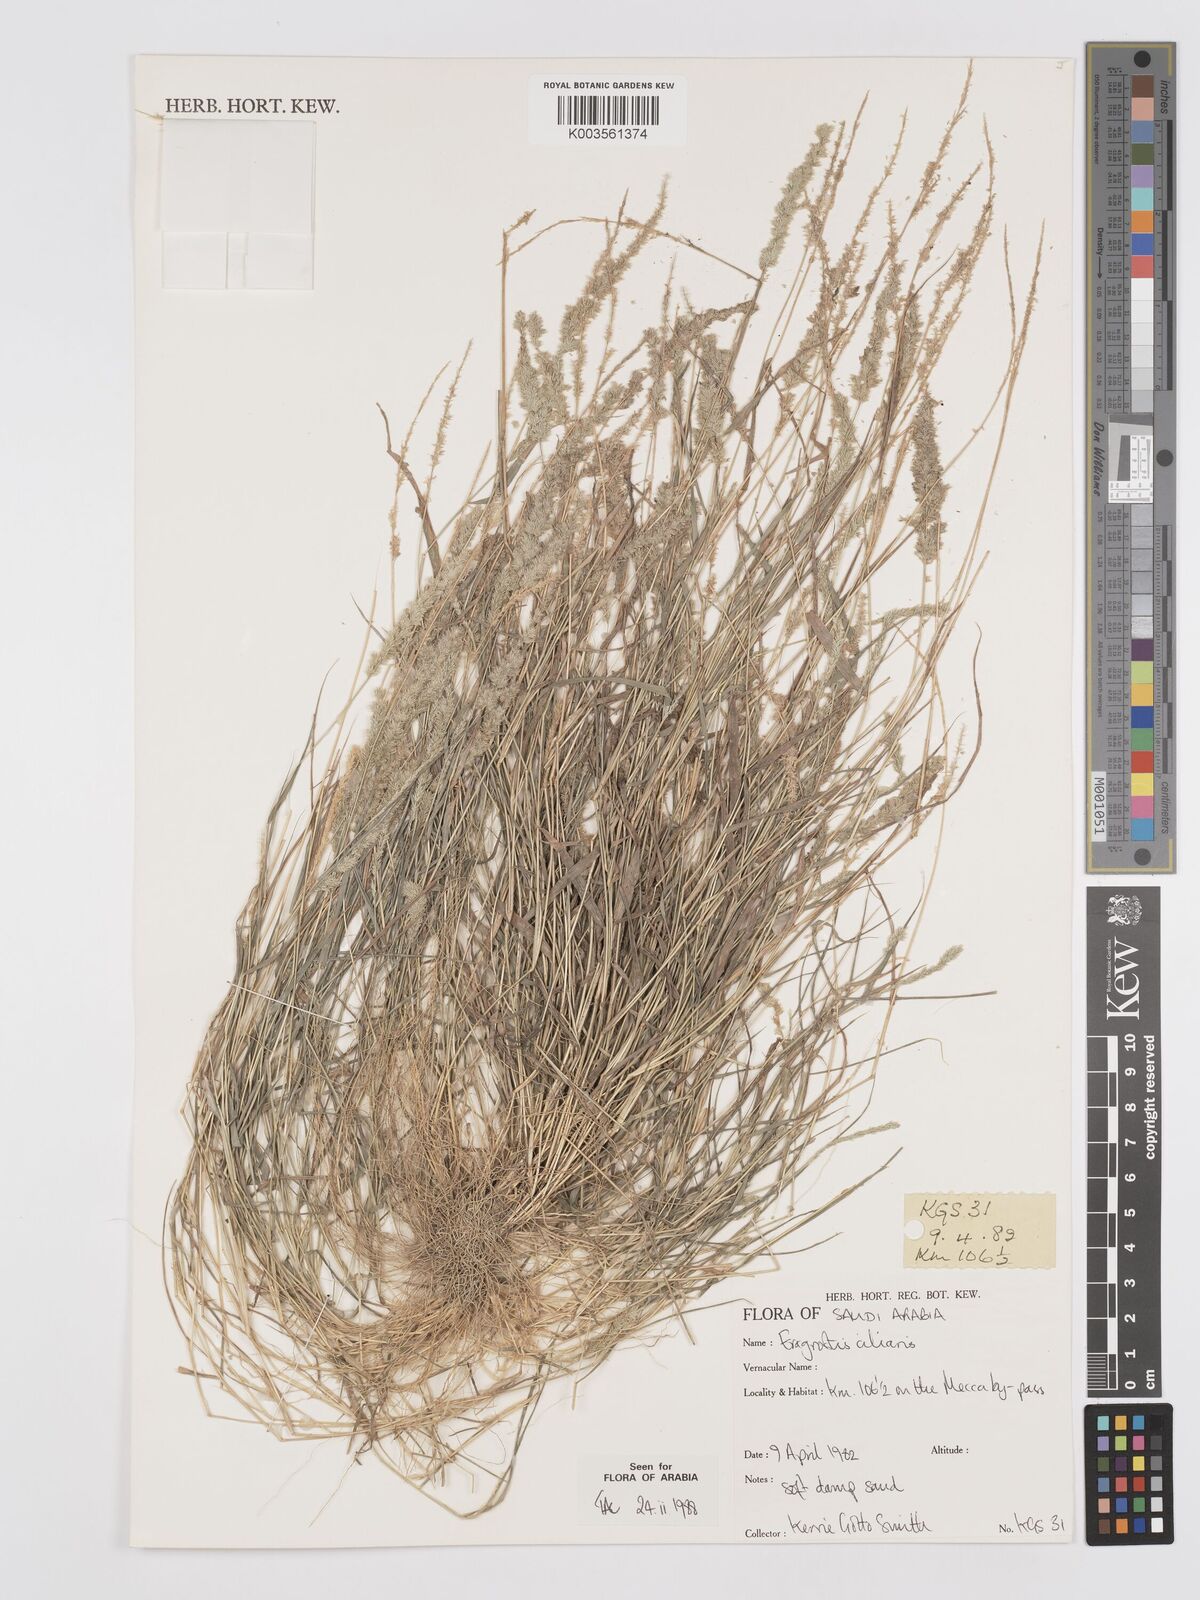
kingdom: Plantae
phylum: Tracheophyta
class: Liliopsida
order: Poales
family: Poaceae
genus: Eragrostis
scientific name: Eragrostis ciliaris
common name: Gophertail lovegrass
